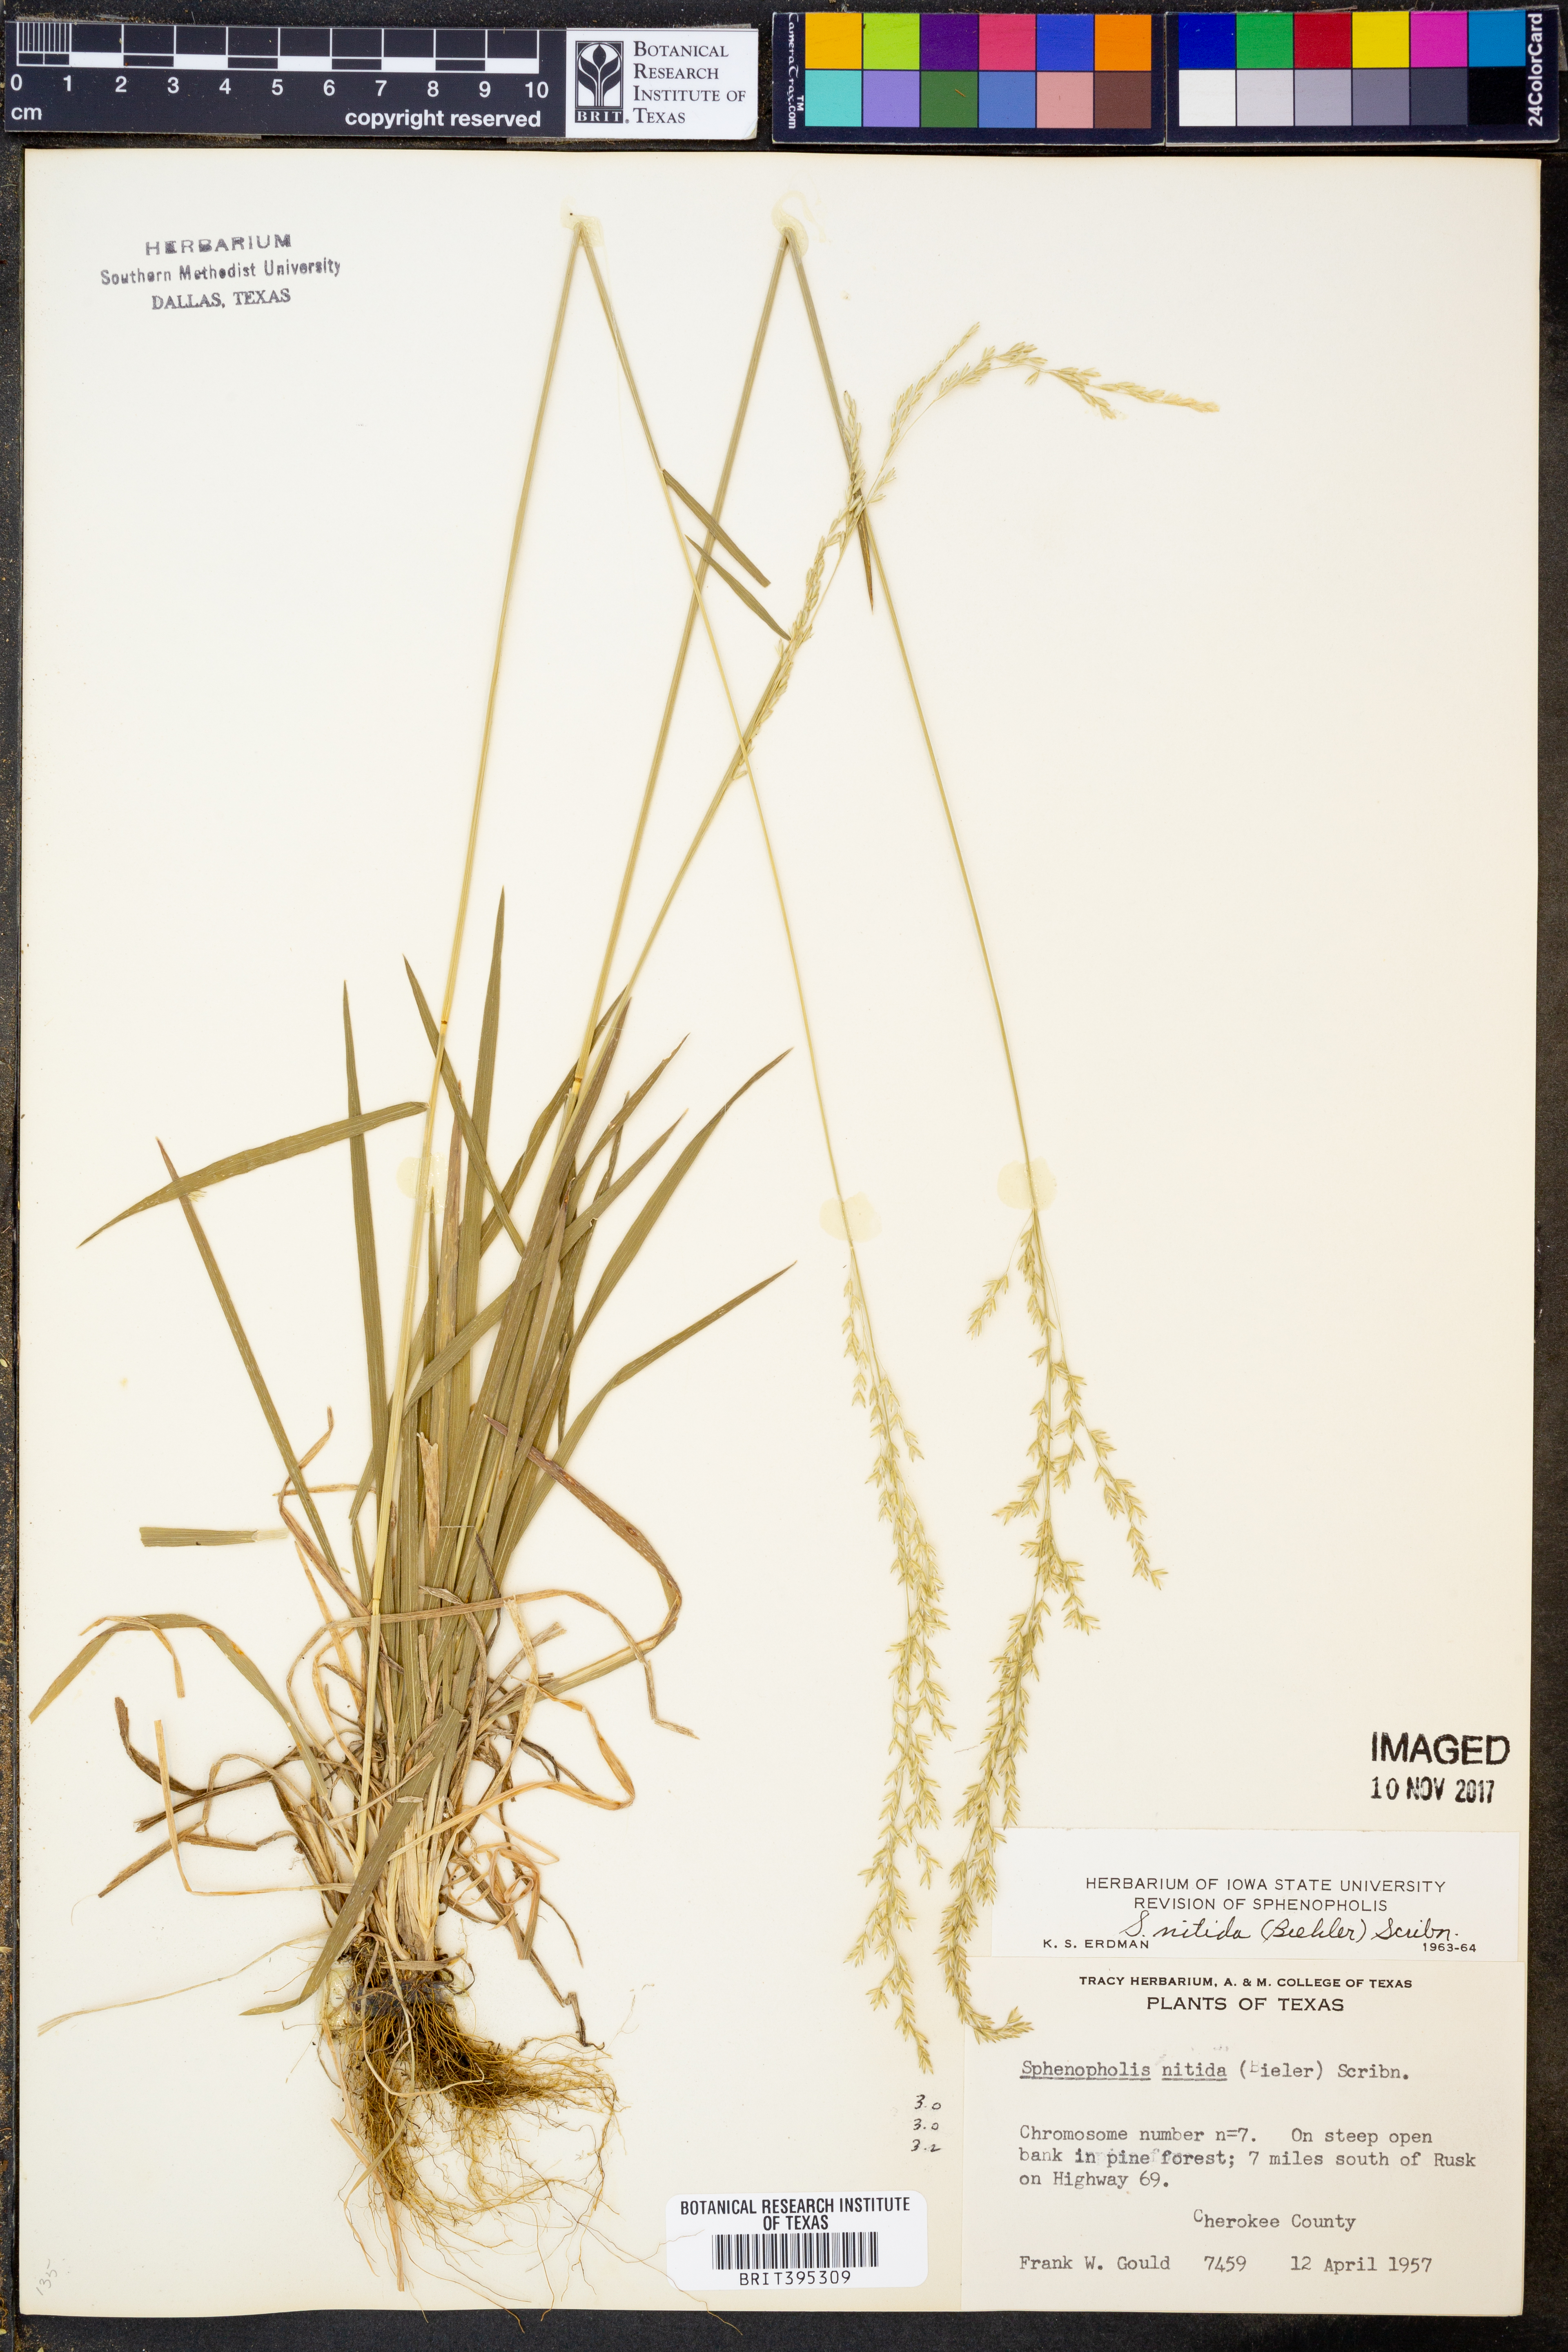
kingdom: Plantae
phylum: Tracheophyta
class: Liliopsida
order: Poales
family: Poaceae
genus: Sphenopholis
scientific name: Sphenopholis nitida
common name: Shiny wedgegrass
